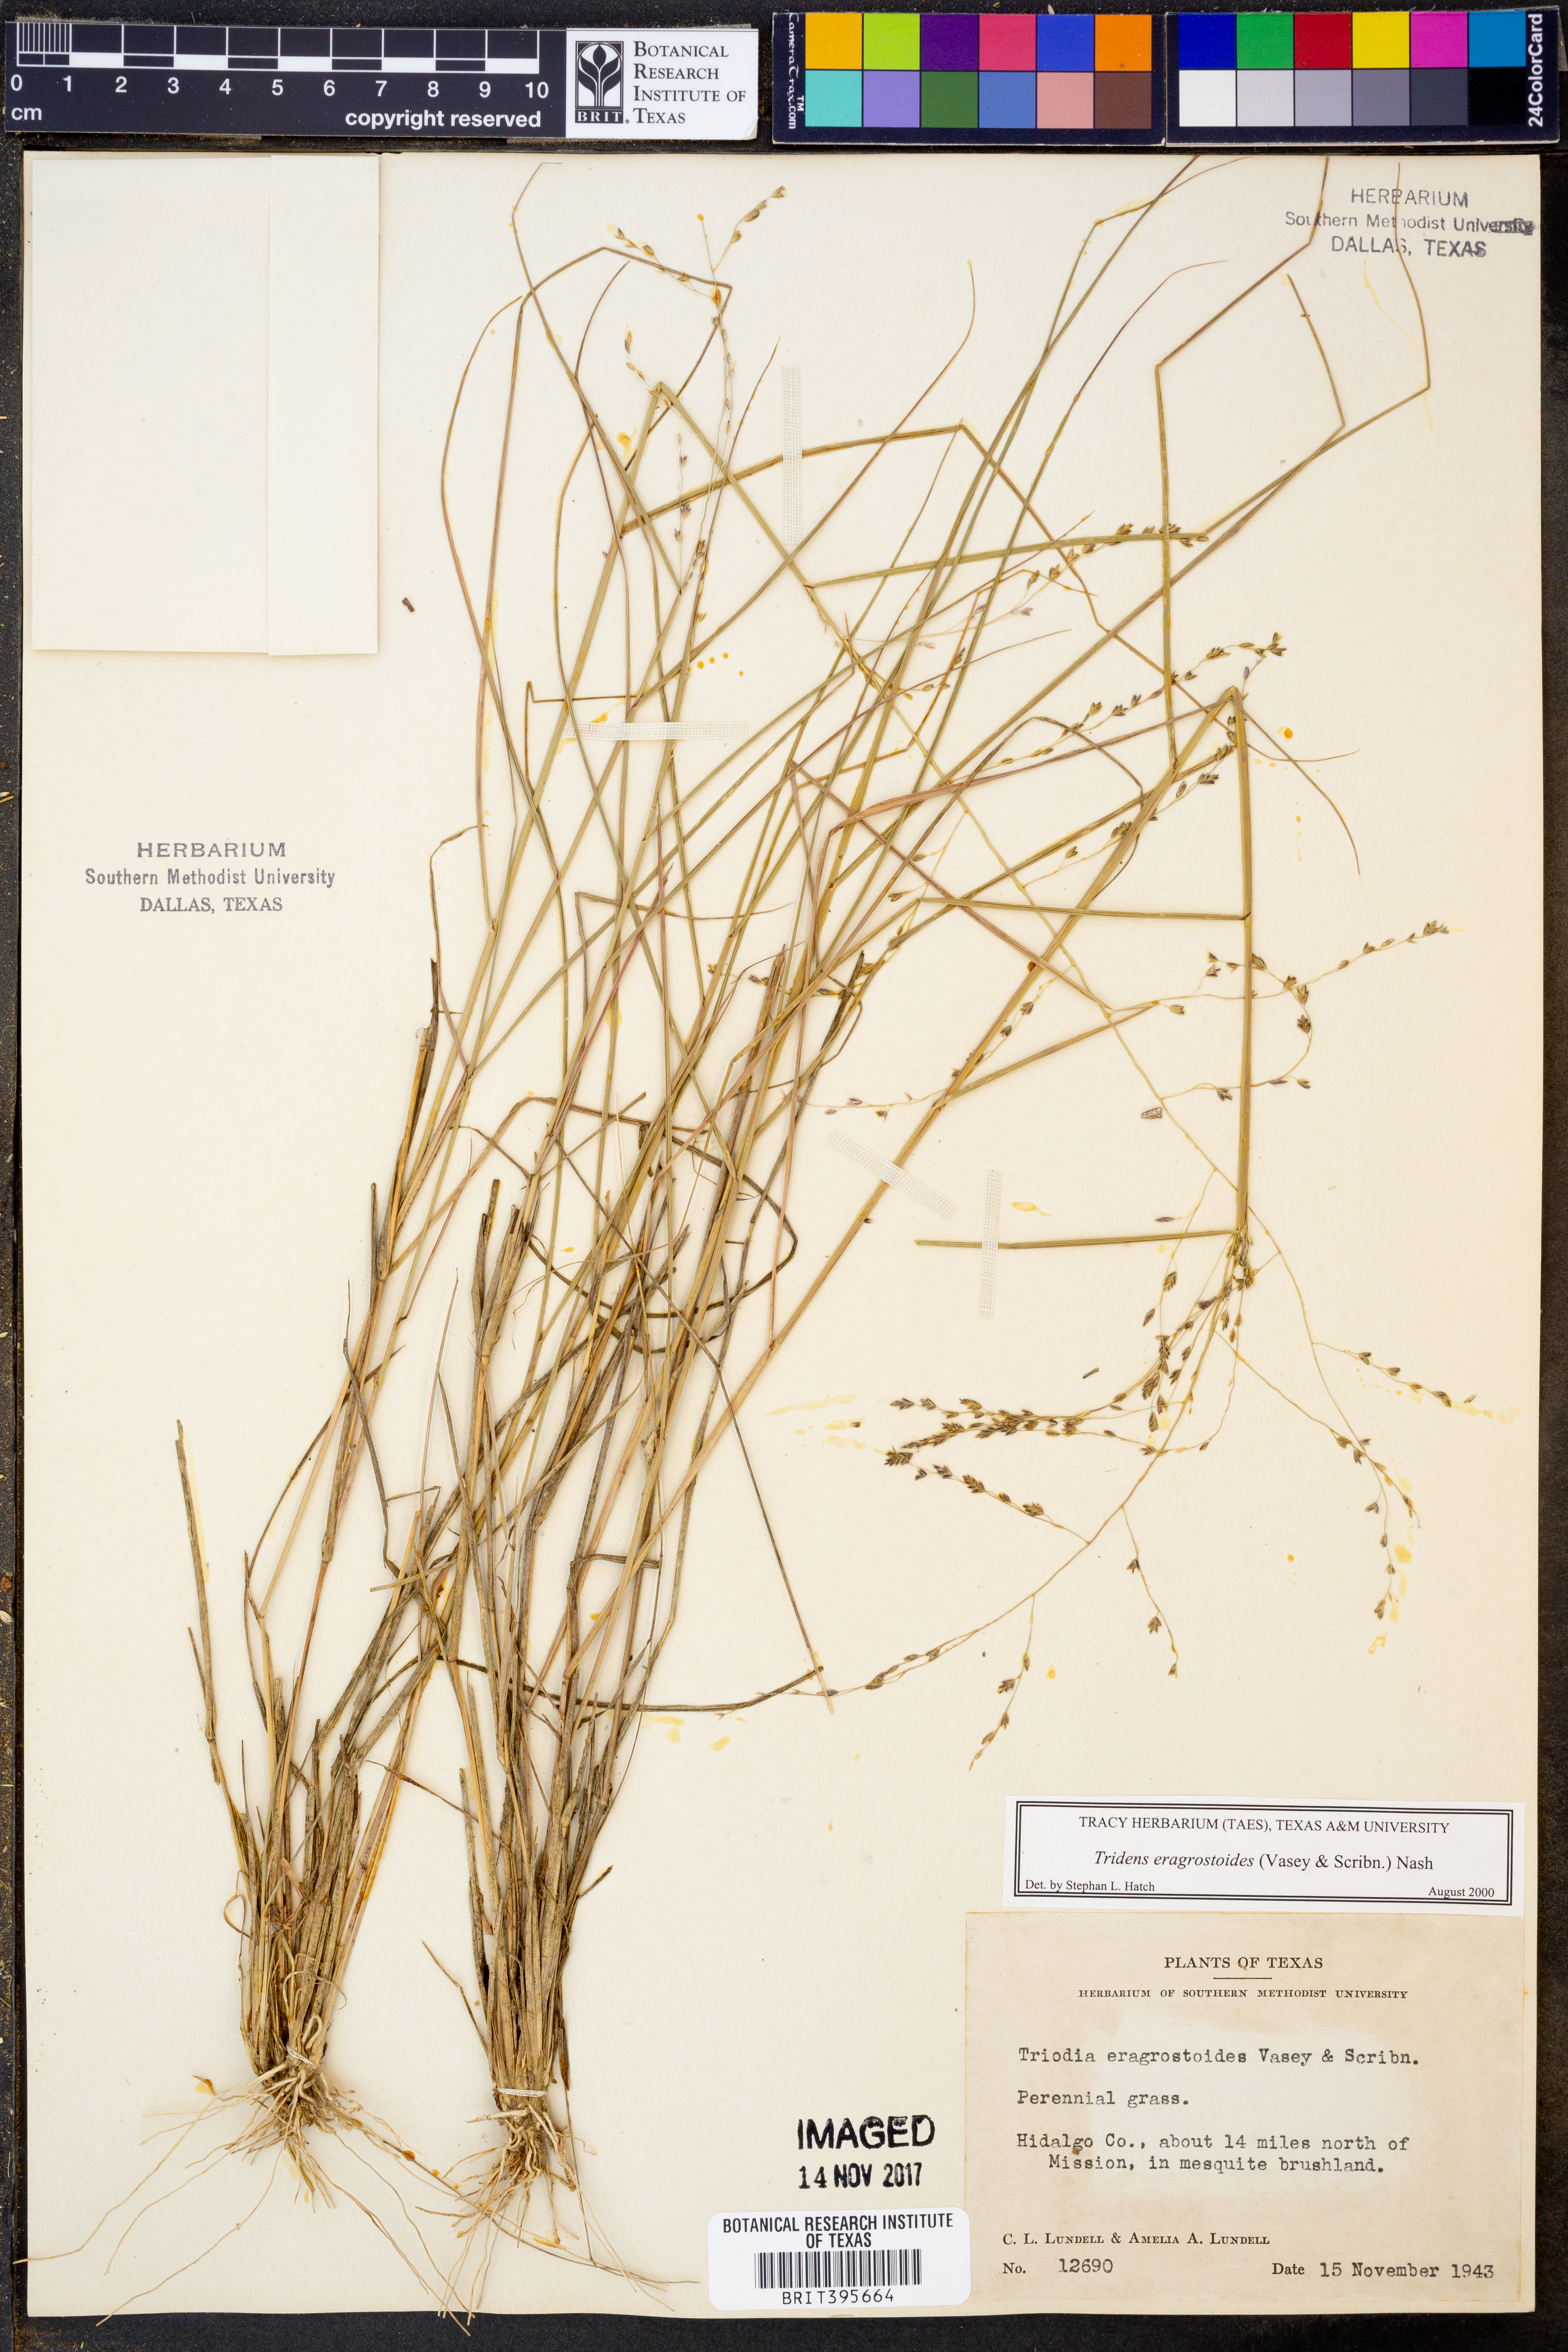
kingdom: Plantae
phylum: Tracheophyta
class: Liliopsida
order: Poales
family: Poaceae
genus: Triplasiella
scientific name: Triplasiella eragrostoides
